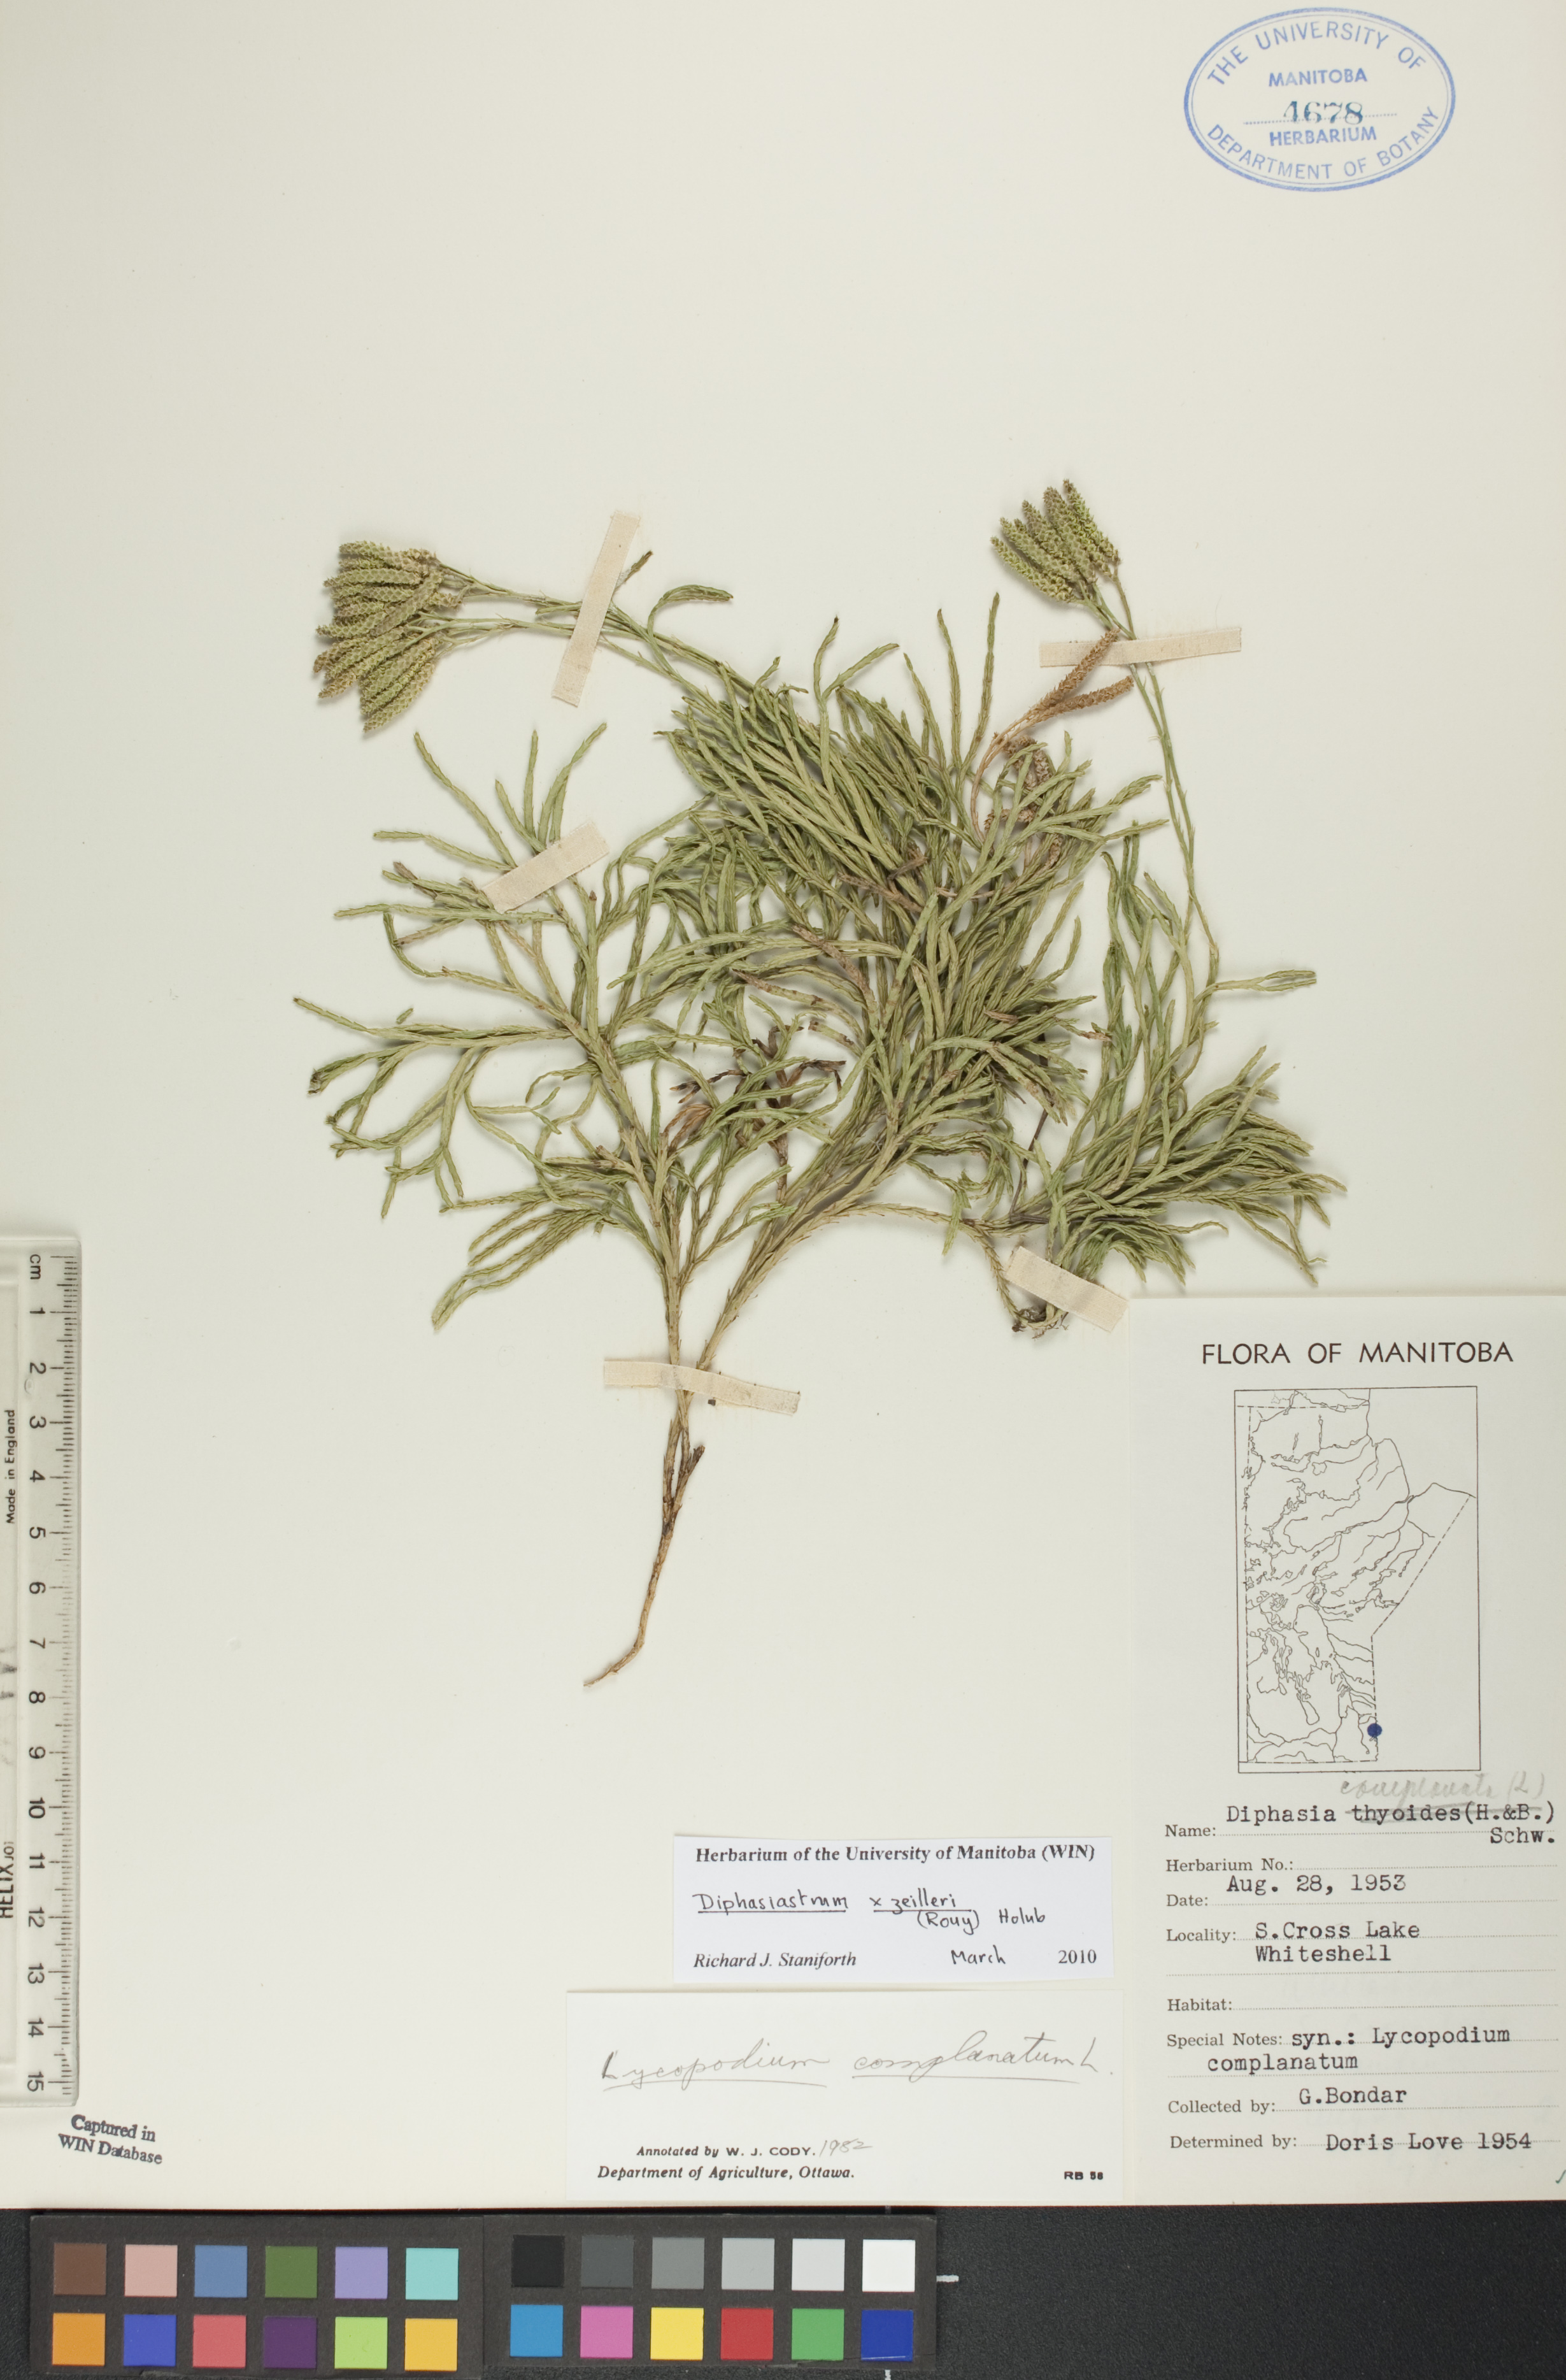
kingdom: Plantae
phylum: Tracheophyta
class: Lycopodiopsida
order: Lycopodiales
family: Lycopodiaceae
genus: Diphasiastrum
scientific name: Diphasiastrum zeilleri
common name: Zeiller's clubmoss
